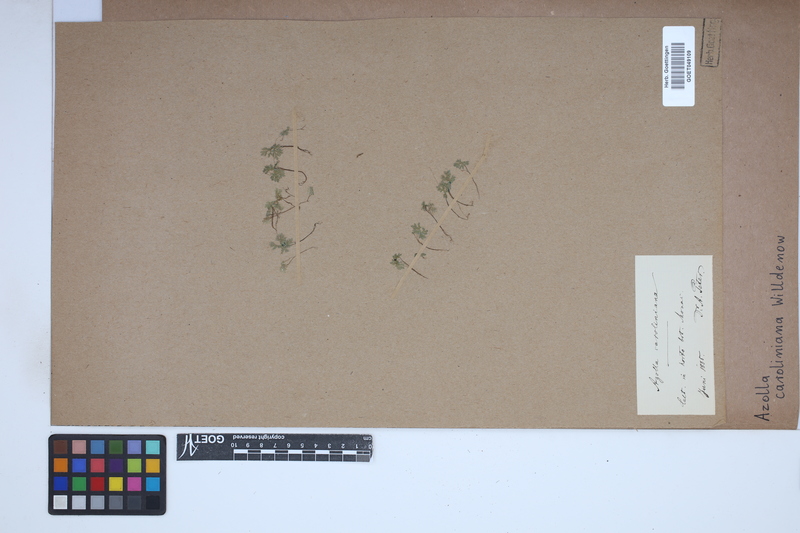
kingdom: Plantae
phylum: Tracheophyta
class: Polypodiopsida
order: Salviniales
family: Salviniaceae
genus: Azolla
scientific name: Azolla caroliniana
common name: Carolina mosquitofern
